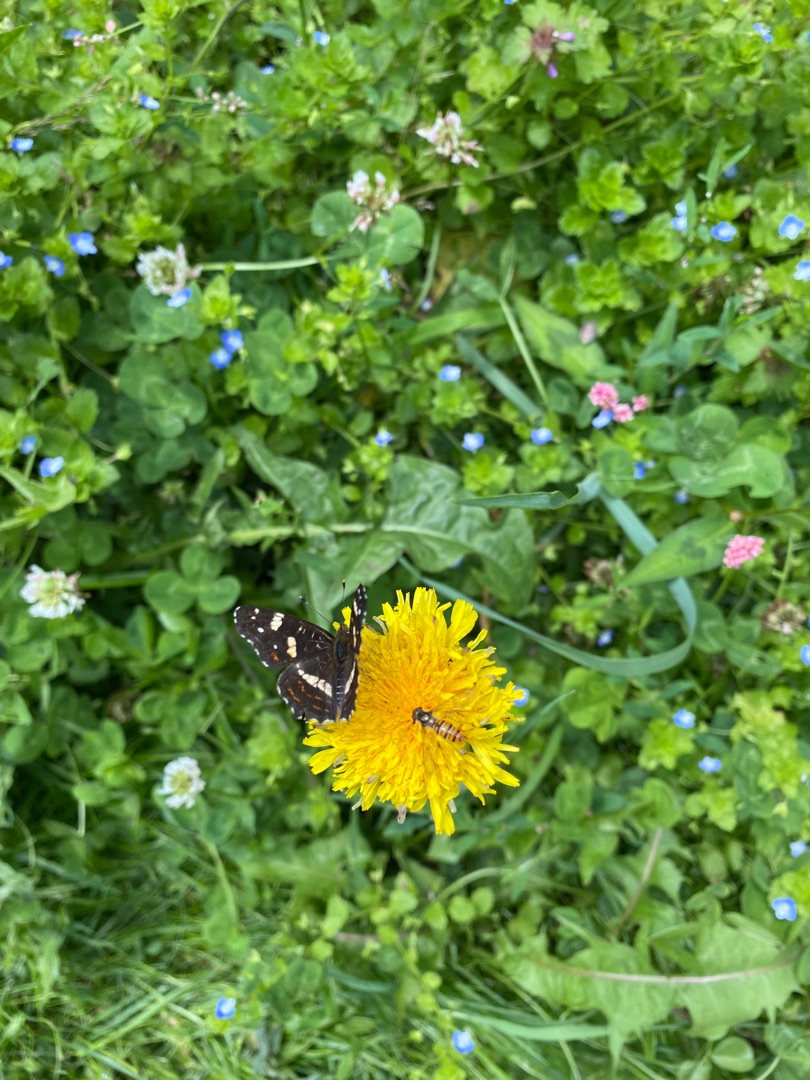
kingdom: Animalia
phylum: Arthropoda
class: Insecta
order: Lepidoptera
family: Nymphalidae
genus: Araschnia
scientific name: Araschnia levana
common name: Nældesommerfugl
